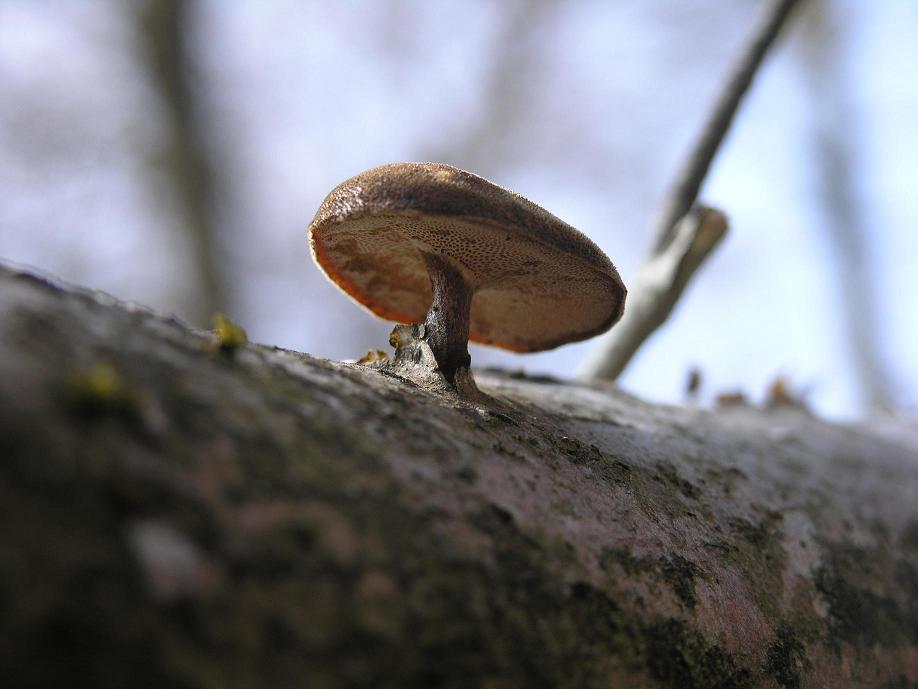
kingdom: Fungi
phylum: Basidiomycota
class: Agaricomycetes
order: Polyporales
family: Polyporaceae
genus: Lentinus
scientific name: Lentinus brumalis
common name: vinter-stilkporesvamp
